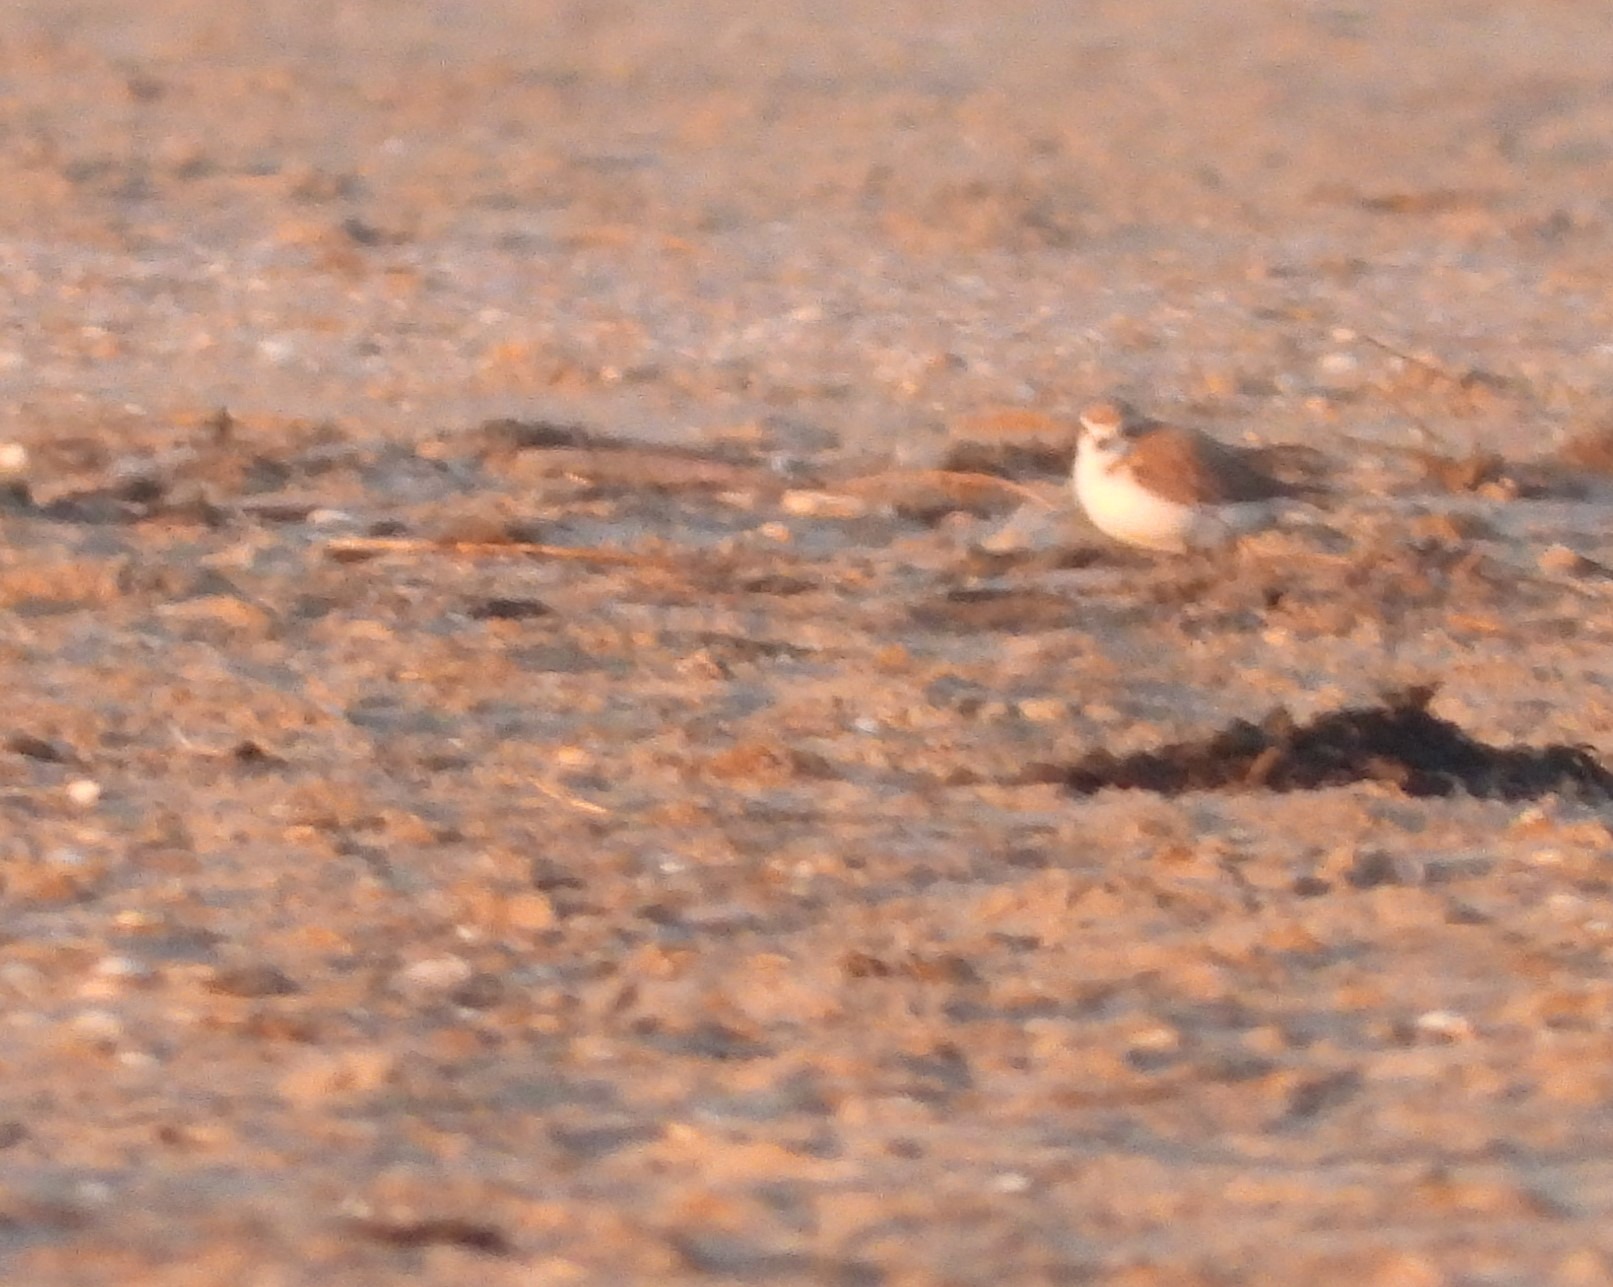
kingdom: Animalia
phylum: Chordata
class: Aves
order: Charadriiformes
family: Charadriidae
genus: Charadrius
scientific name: Charadrius alexandrinus
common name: Hvidbrystet præstekrave
